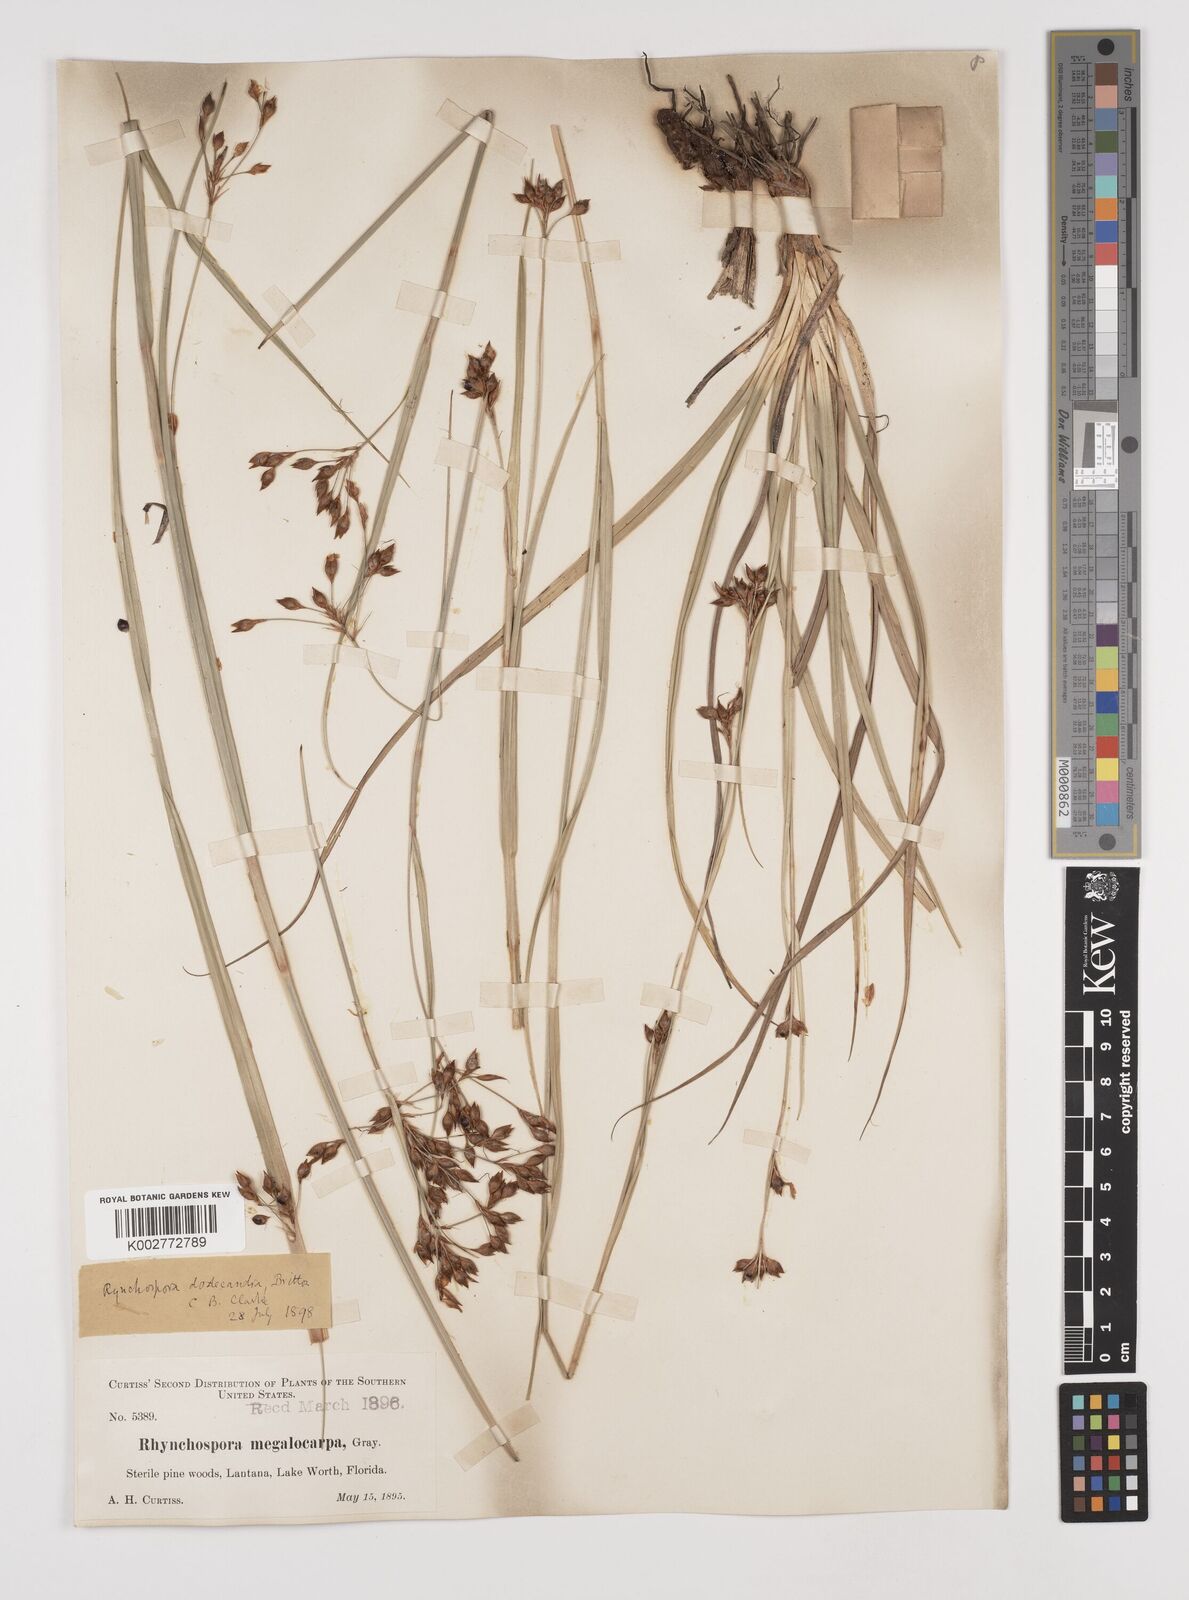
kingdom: Plantae
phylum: Tracheophyta
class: Liliopsida
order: Poales
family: Cyperaceae
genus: Rhynchospora
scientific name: Rhynchospora megalocarpa
